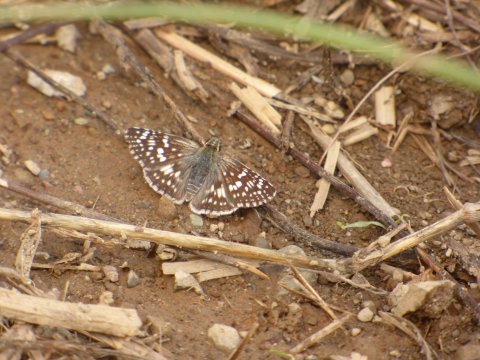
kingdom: Animalia
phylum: Arthropoda
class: Insecta
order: Lepidoptera
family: Hesperiidae
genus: Pyrgus
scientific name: Pyrgus communis
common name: Common Checkered-Skipper
